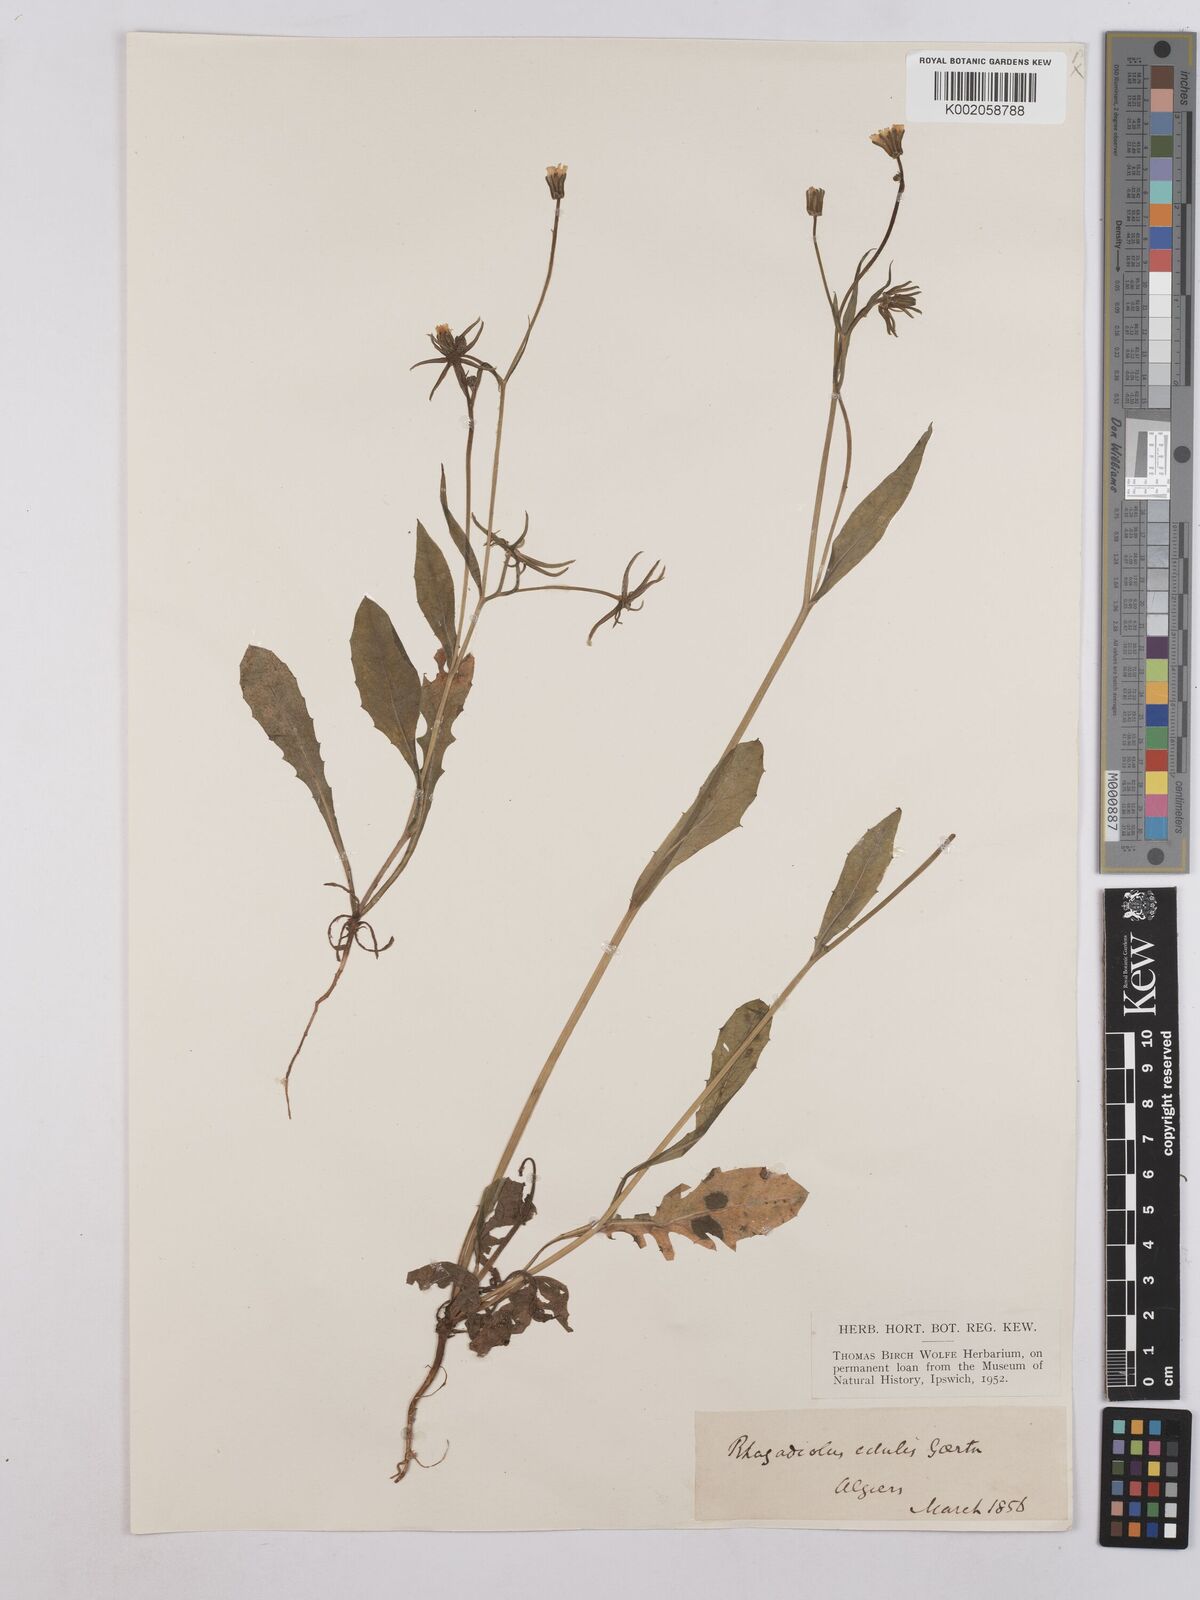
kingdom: Plantae
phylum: Tracheophyta
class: Magnoliopsida
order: Asterales
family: Asteraceae
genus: Rhagadiolus
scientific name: Rhagadiolus stellatus
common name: Star hawkbit
